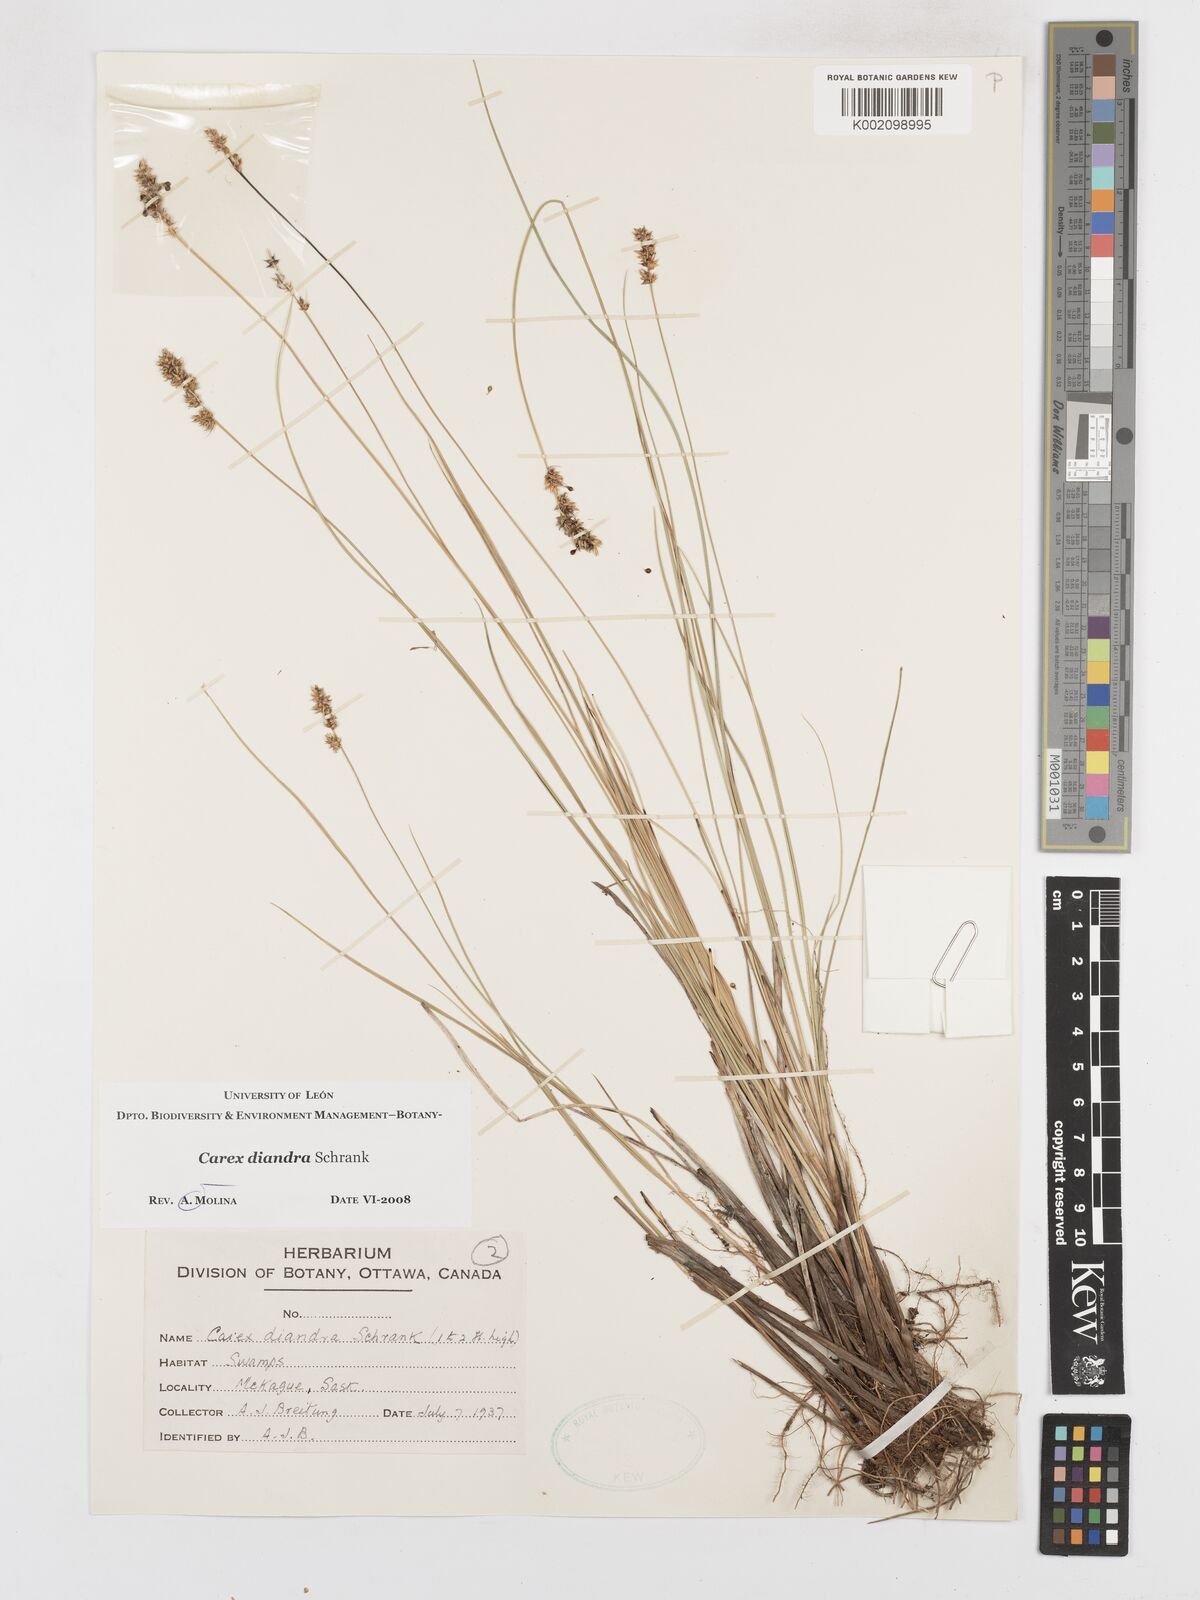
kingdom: Plantae
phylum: Tracheophyta
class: Liliopsida
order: Poales
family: Cyperaceae
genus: Carex
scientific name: Carex diandra
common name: Lesser tussock-sedge
